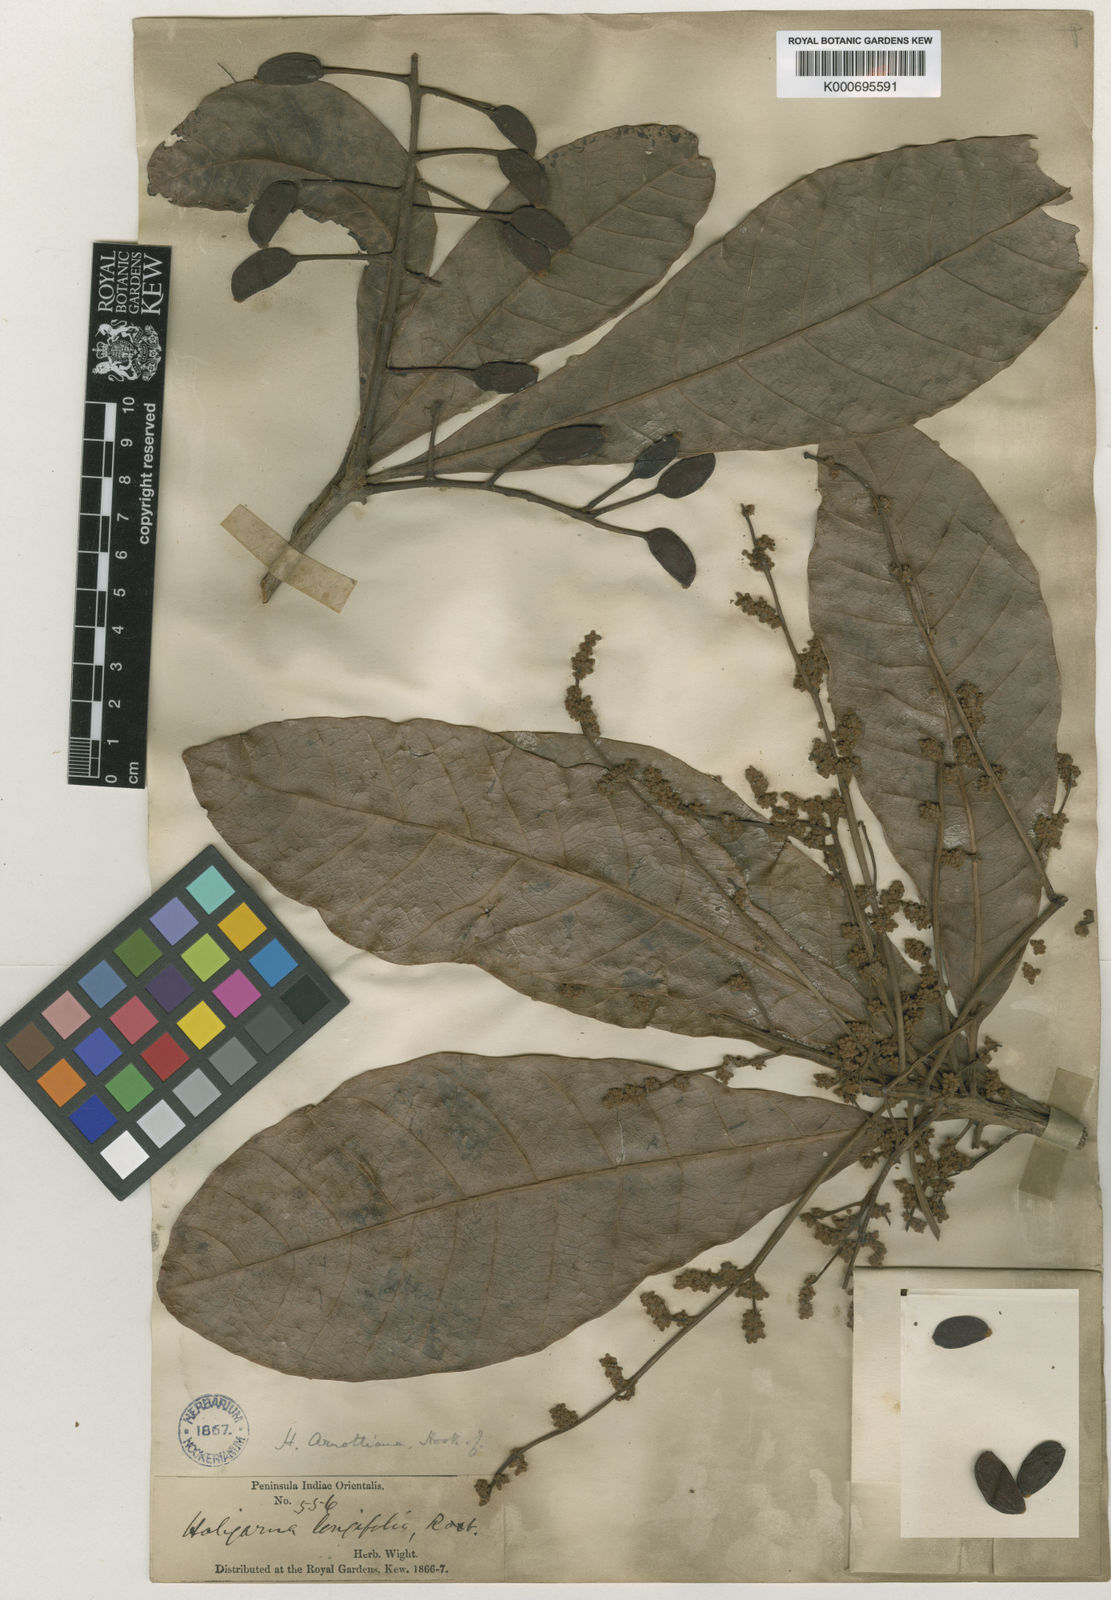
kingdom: Plantae
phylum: Tracheophyta
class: Magnoliopsida
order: Sapindales
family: Anacardiaceae
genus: Holigarna
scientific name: Holigarna arnottiana
